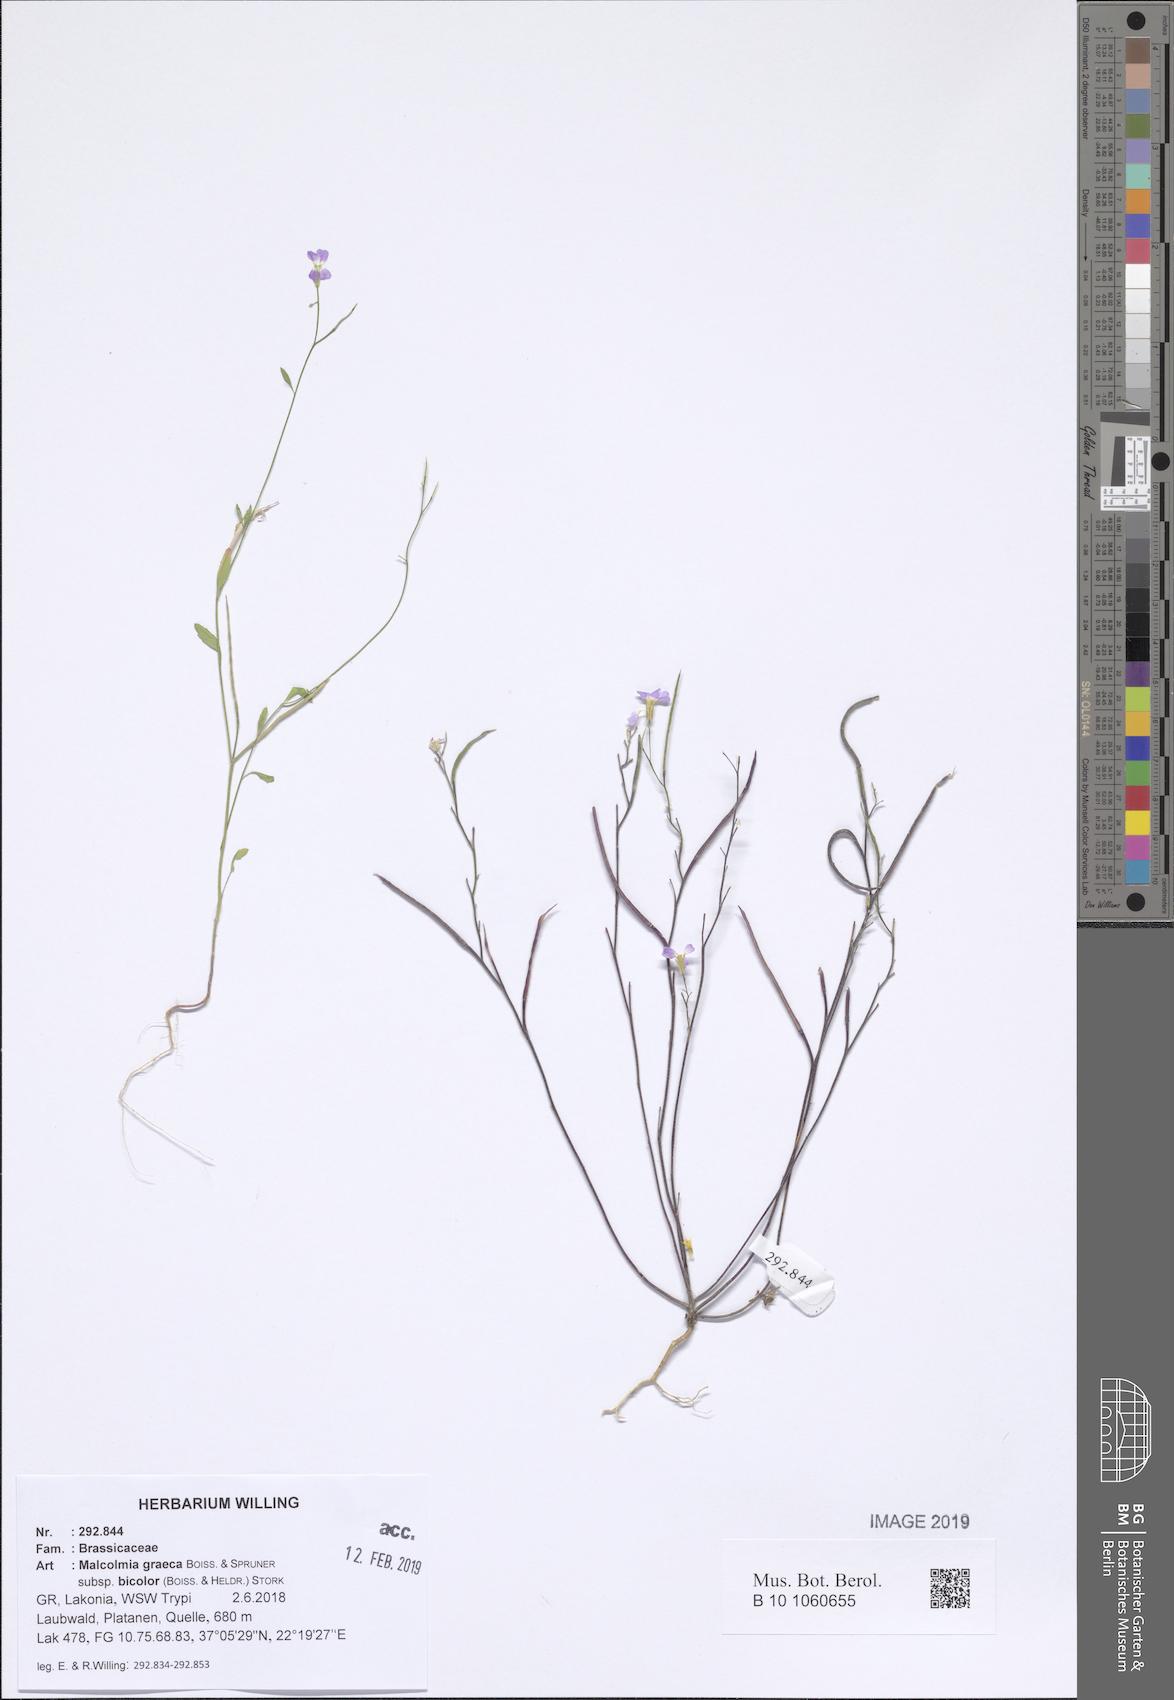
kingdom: Plantae
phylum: Tracheophyta
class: Magnoliopsida
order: Brassicales
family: Brassicaceae
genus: Malcolmia
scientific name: Malcolmia graeca
